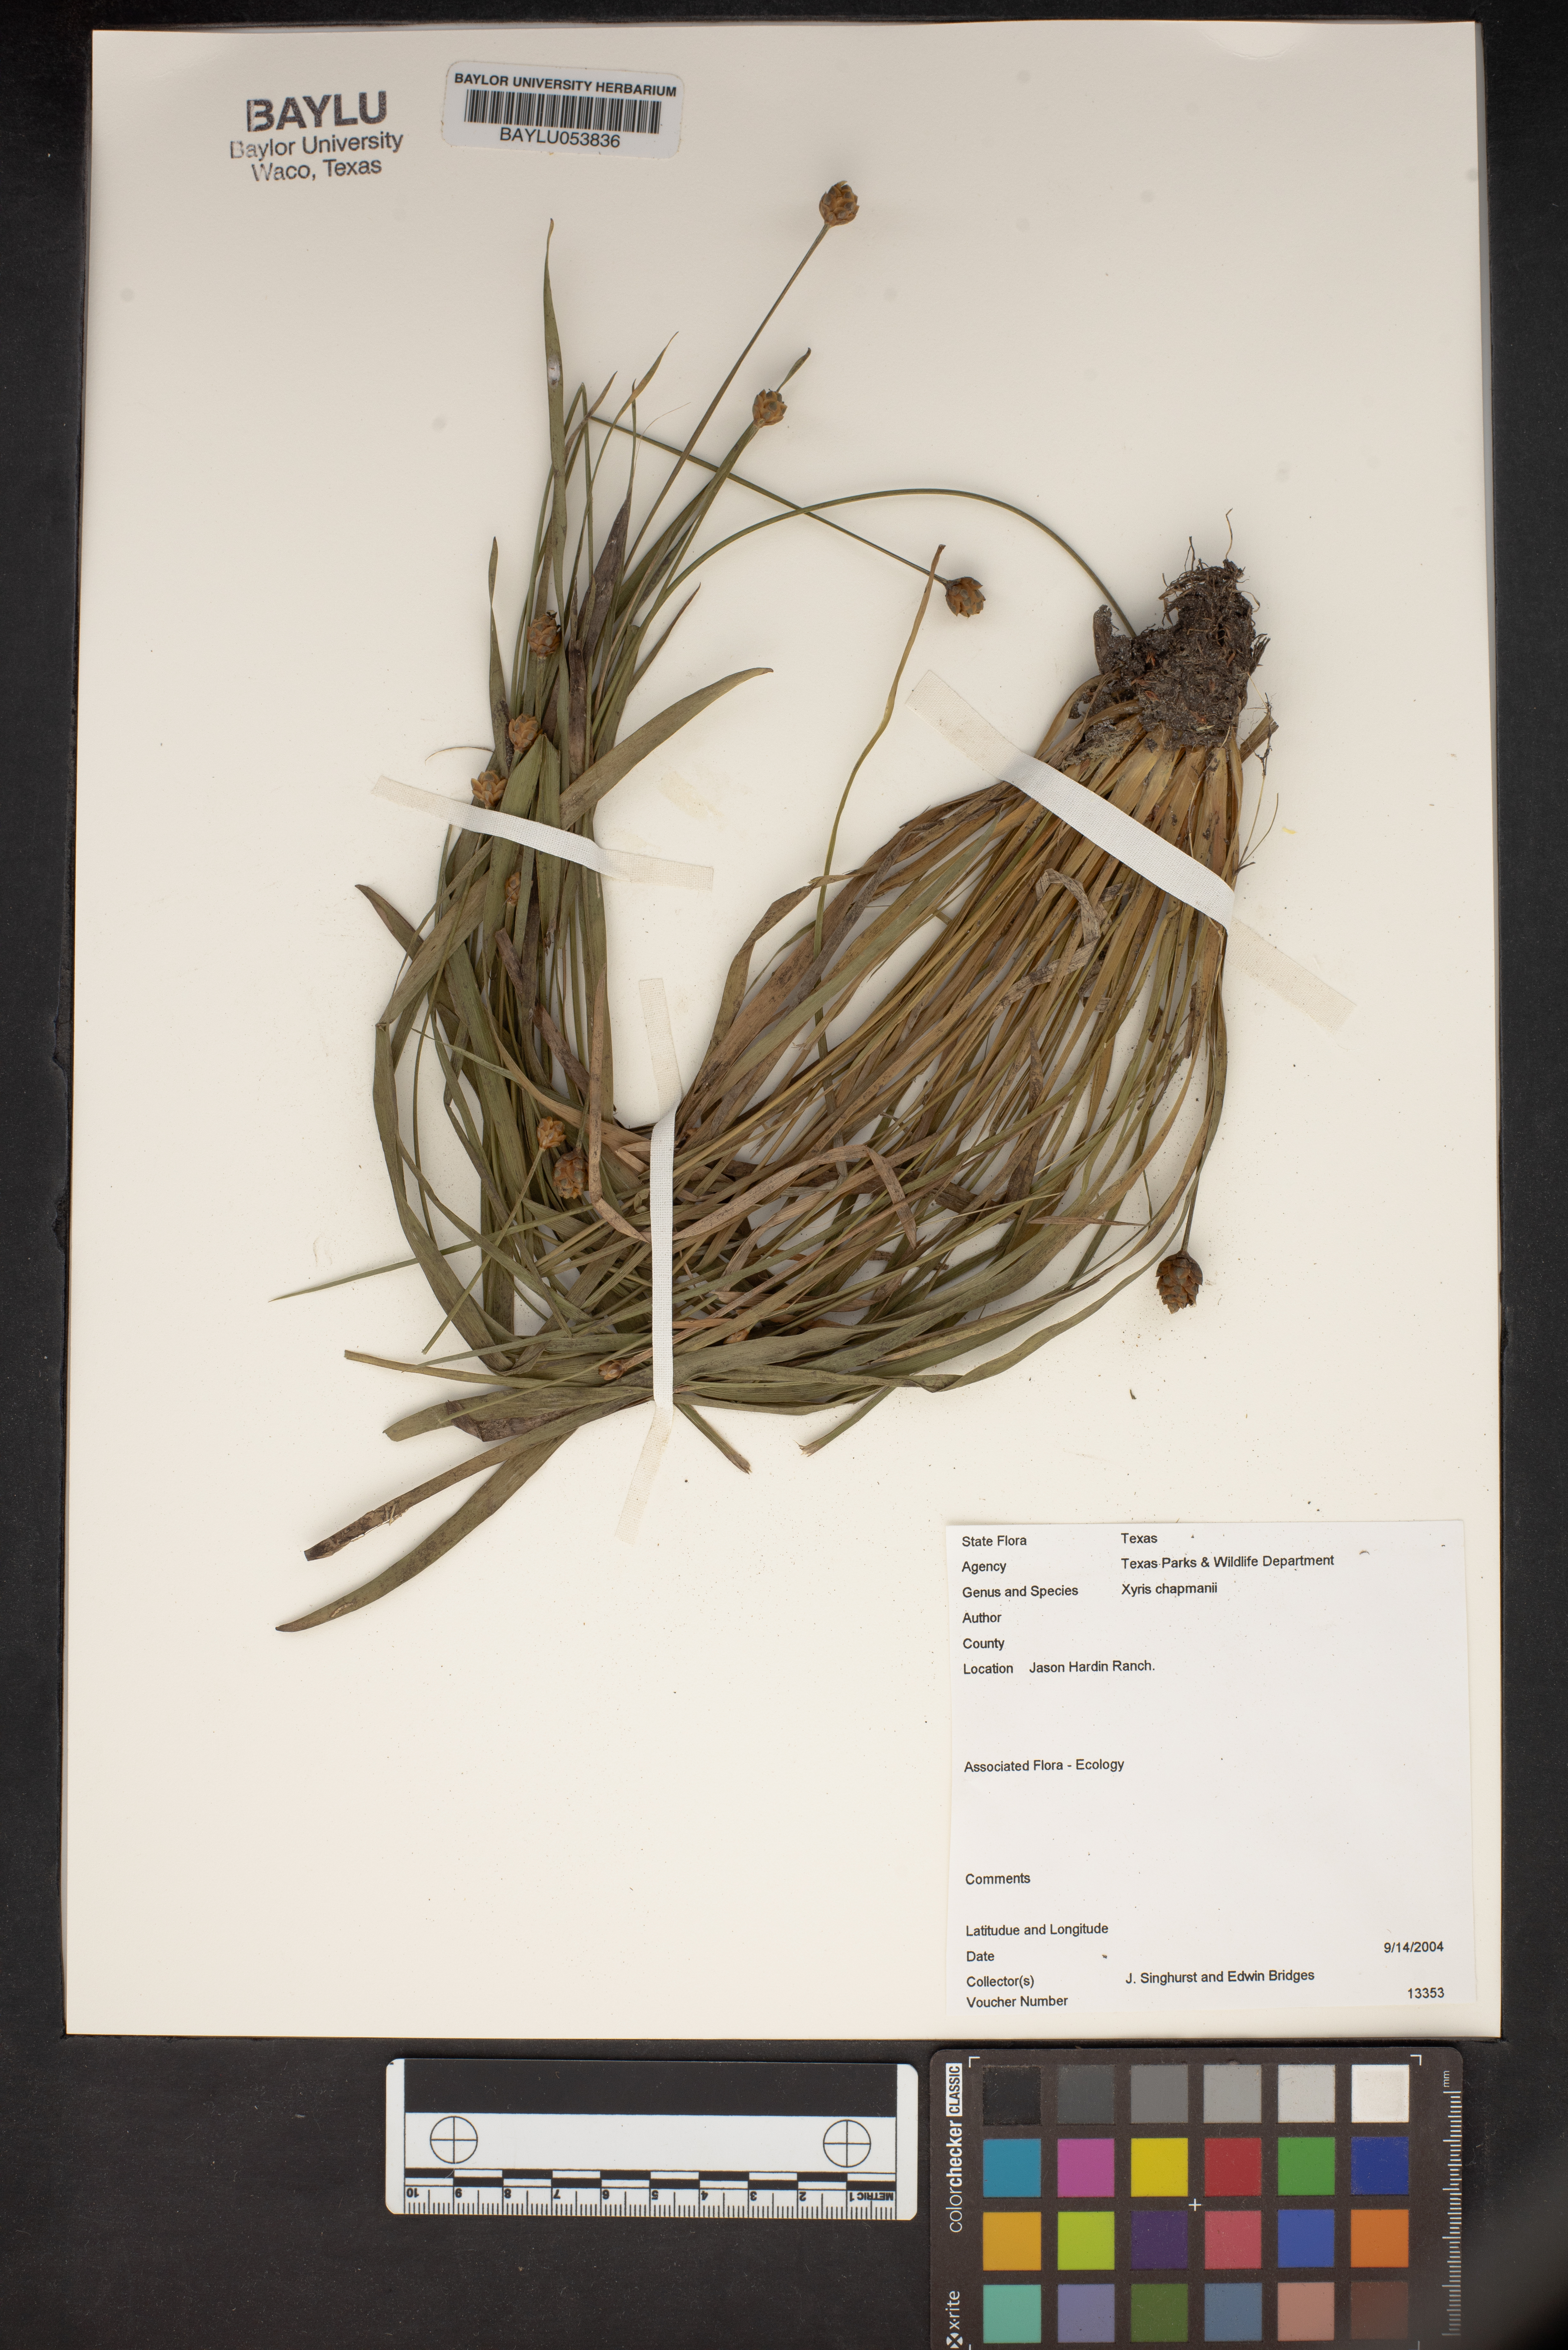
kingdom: Plantae
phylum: Tracheophyta
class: Liliopsida
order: Poales
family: Xyridaceae
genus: Xyris
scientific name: Xyris chapmanii
